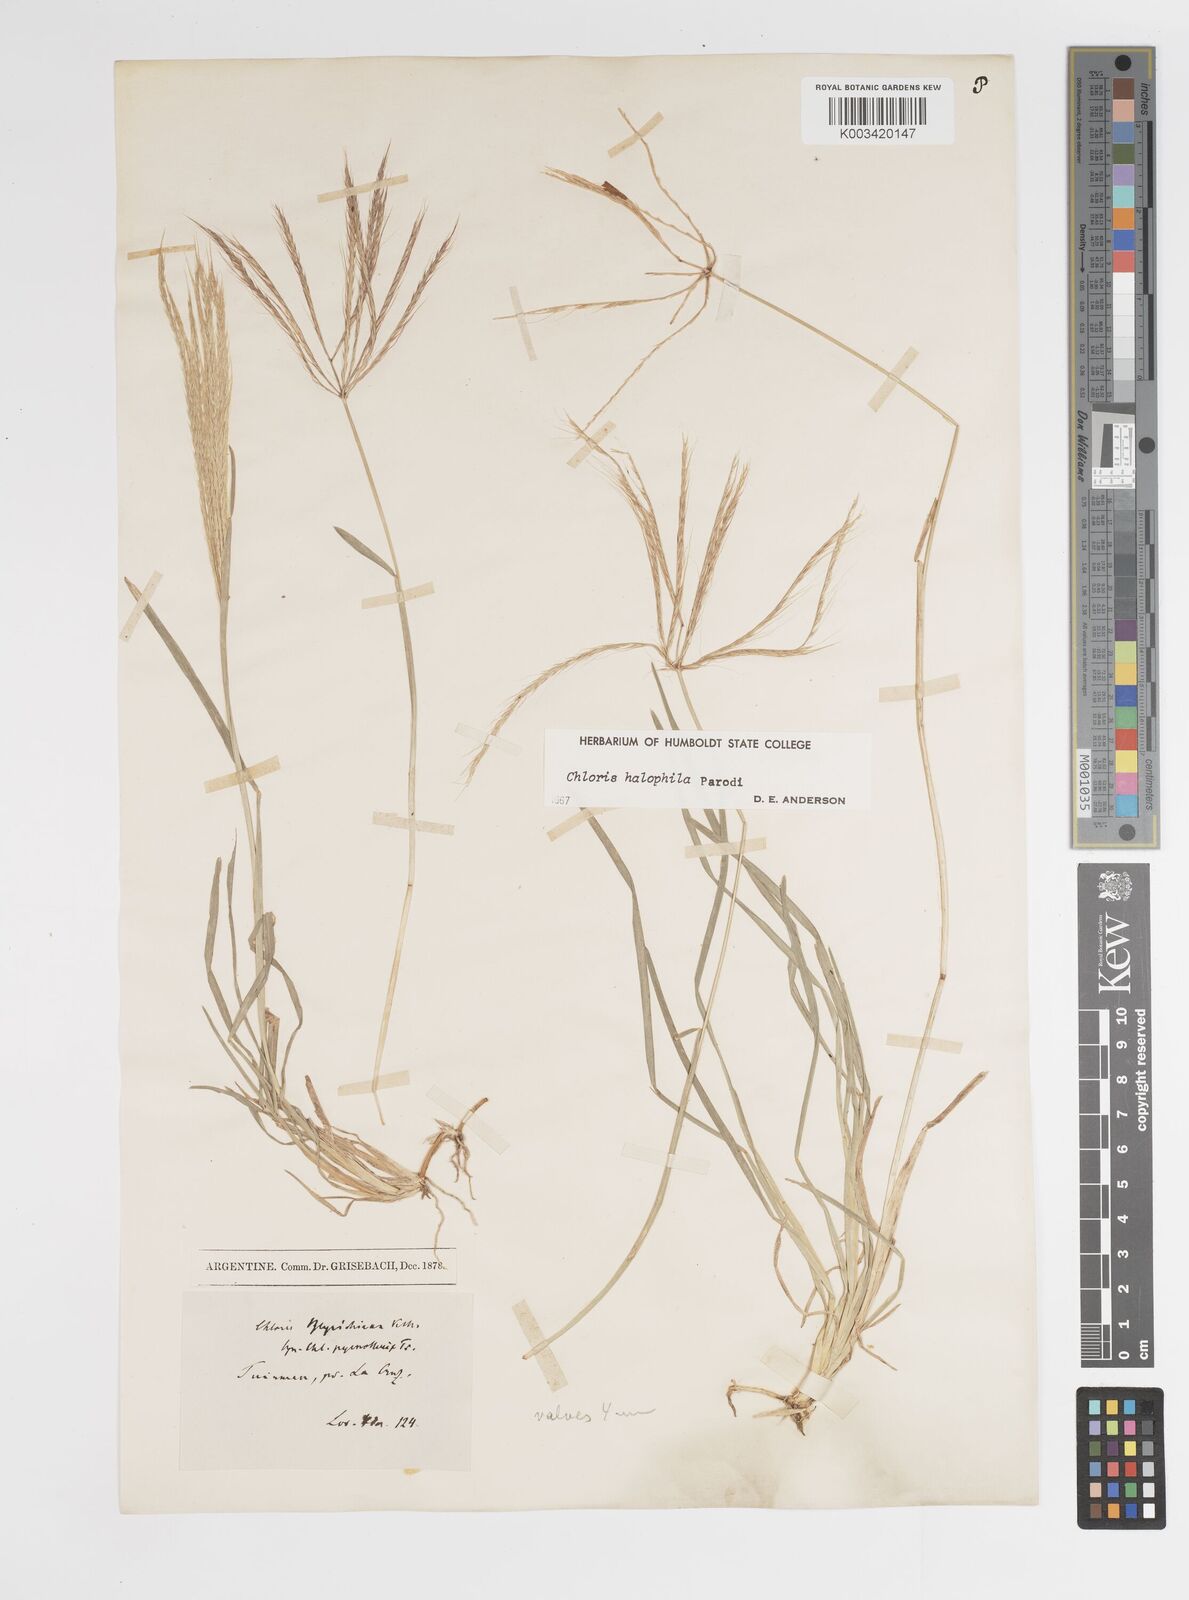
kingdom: Plantae
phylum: Tracheophyta
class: Liliopsida
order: Poales
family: Poaceae
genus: Chloris
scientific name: Chloris halophila
